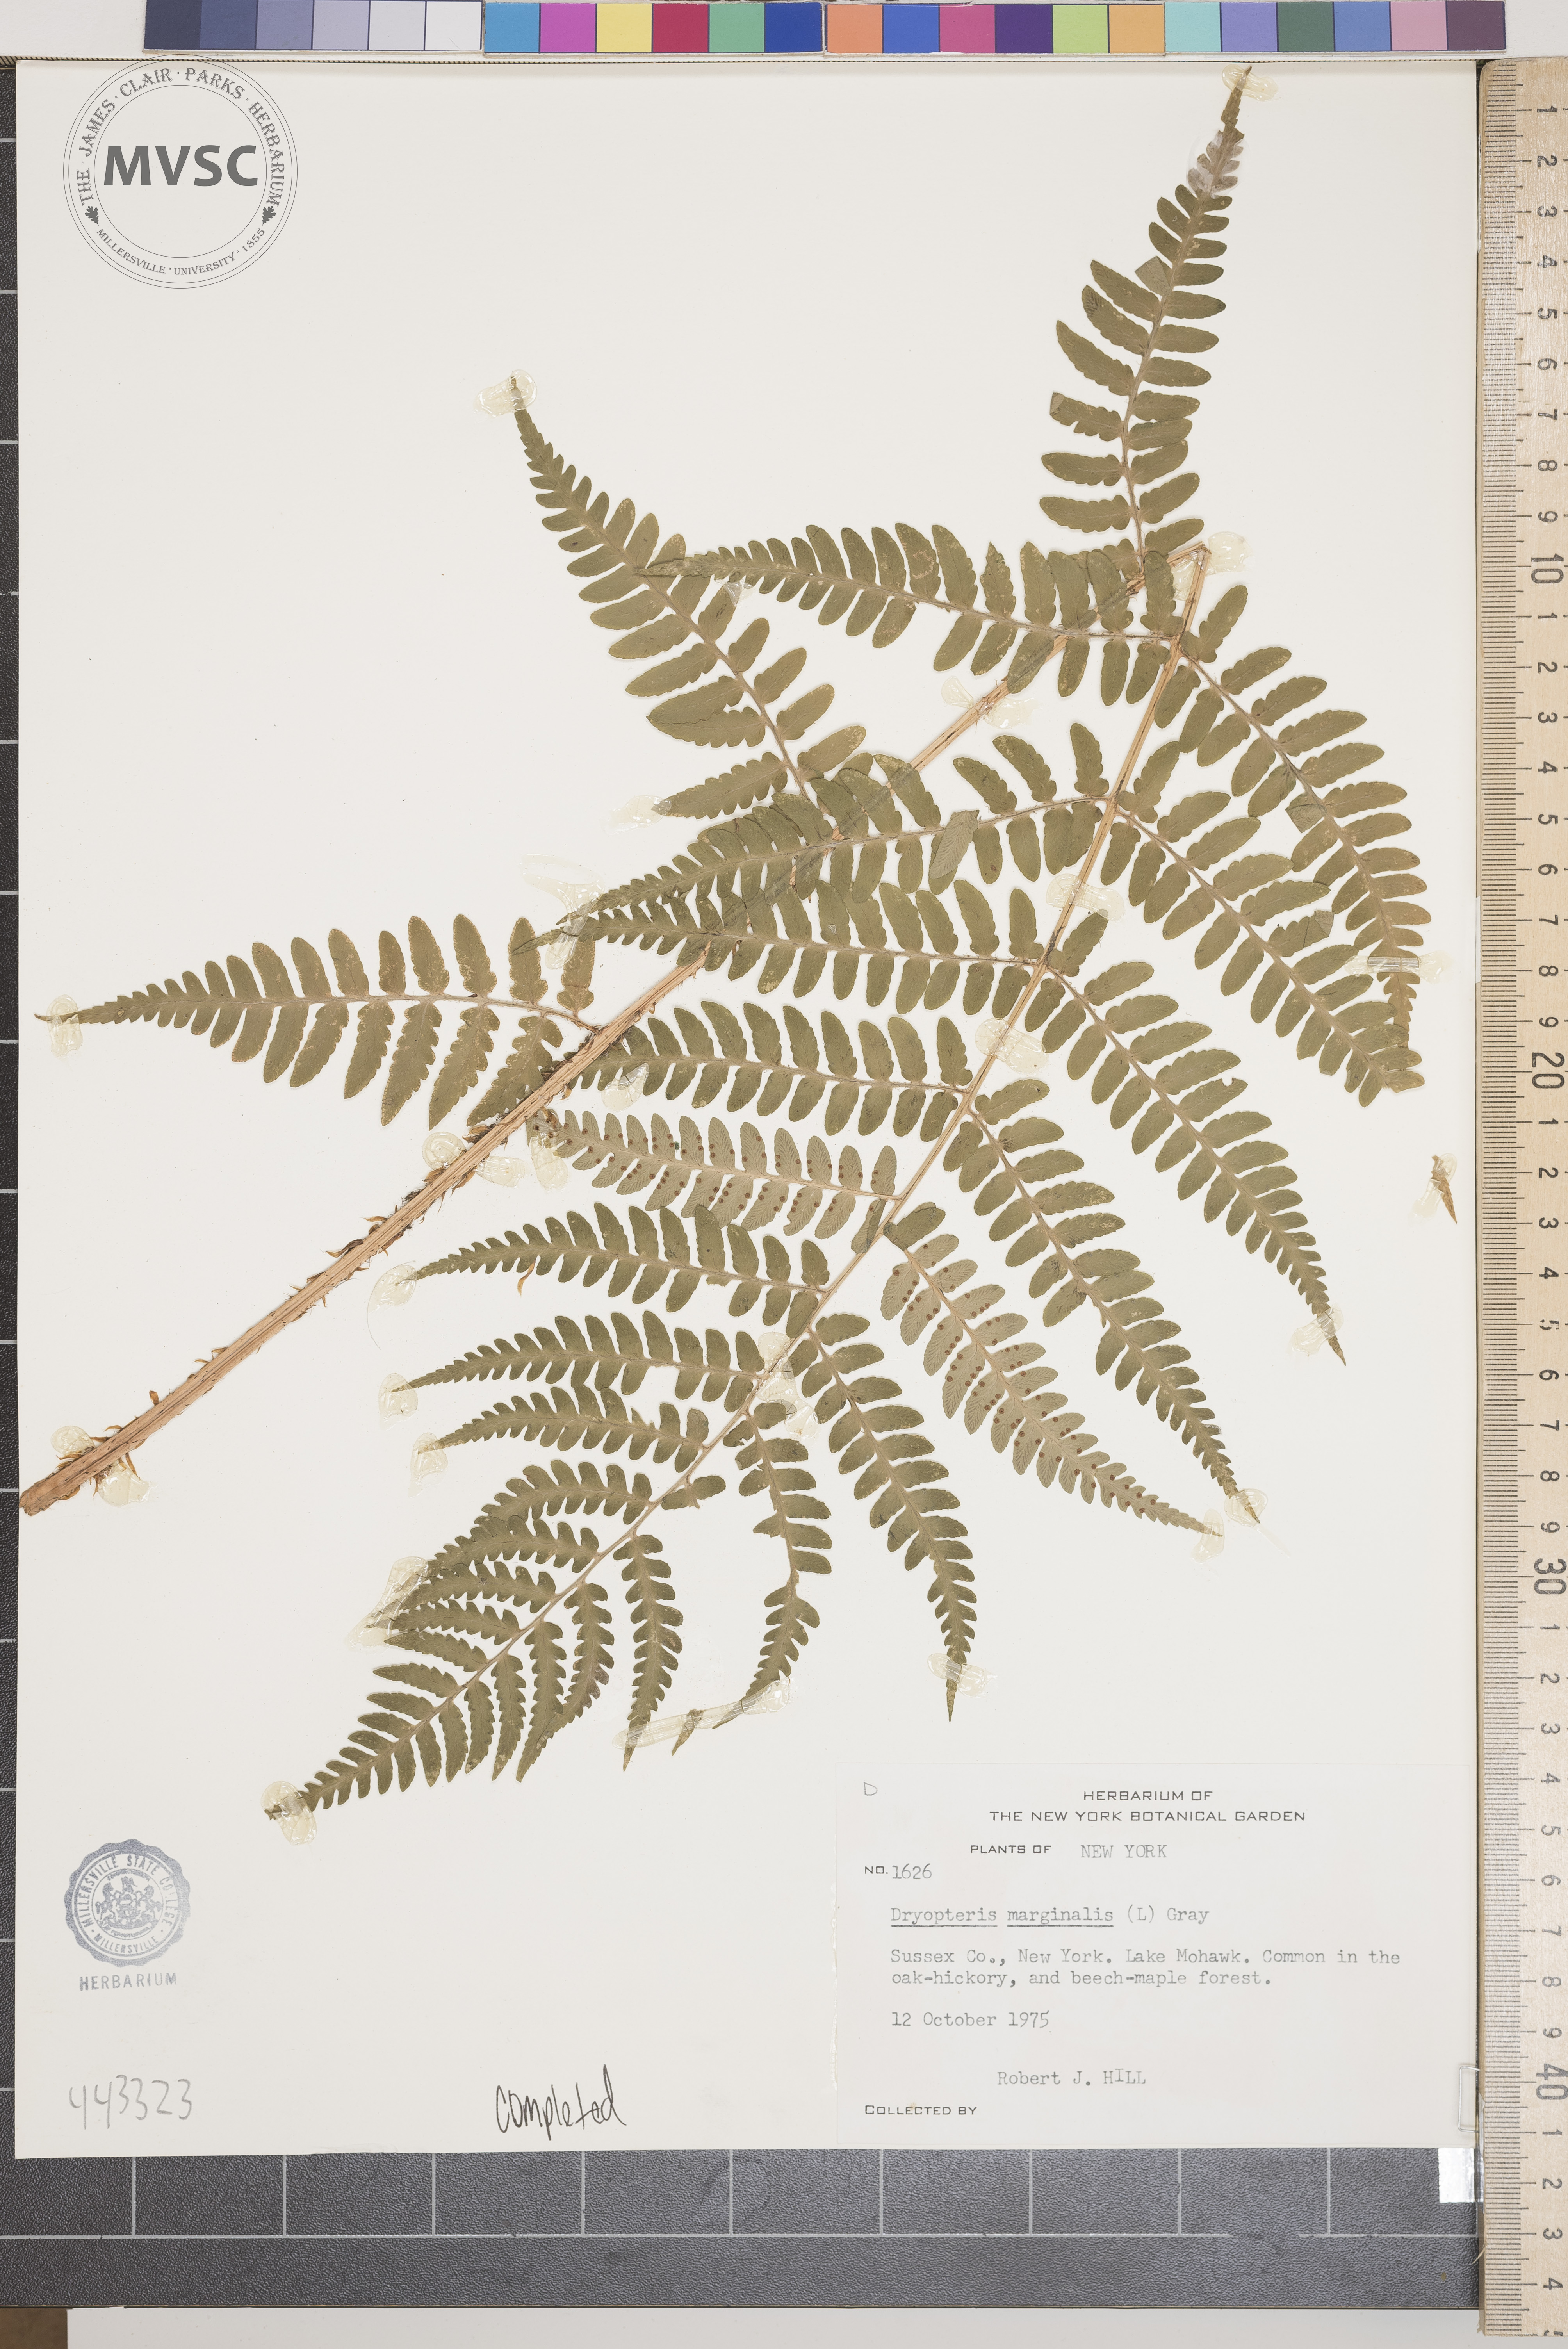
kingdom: Plantae
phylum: Tracheophyta
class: Polypodiopsida
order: Polypodiales
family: Dryopteridaceae
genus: Dryopteris
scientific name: Dryopteris marginalis
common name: Marginal wood fern
